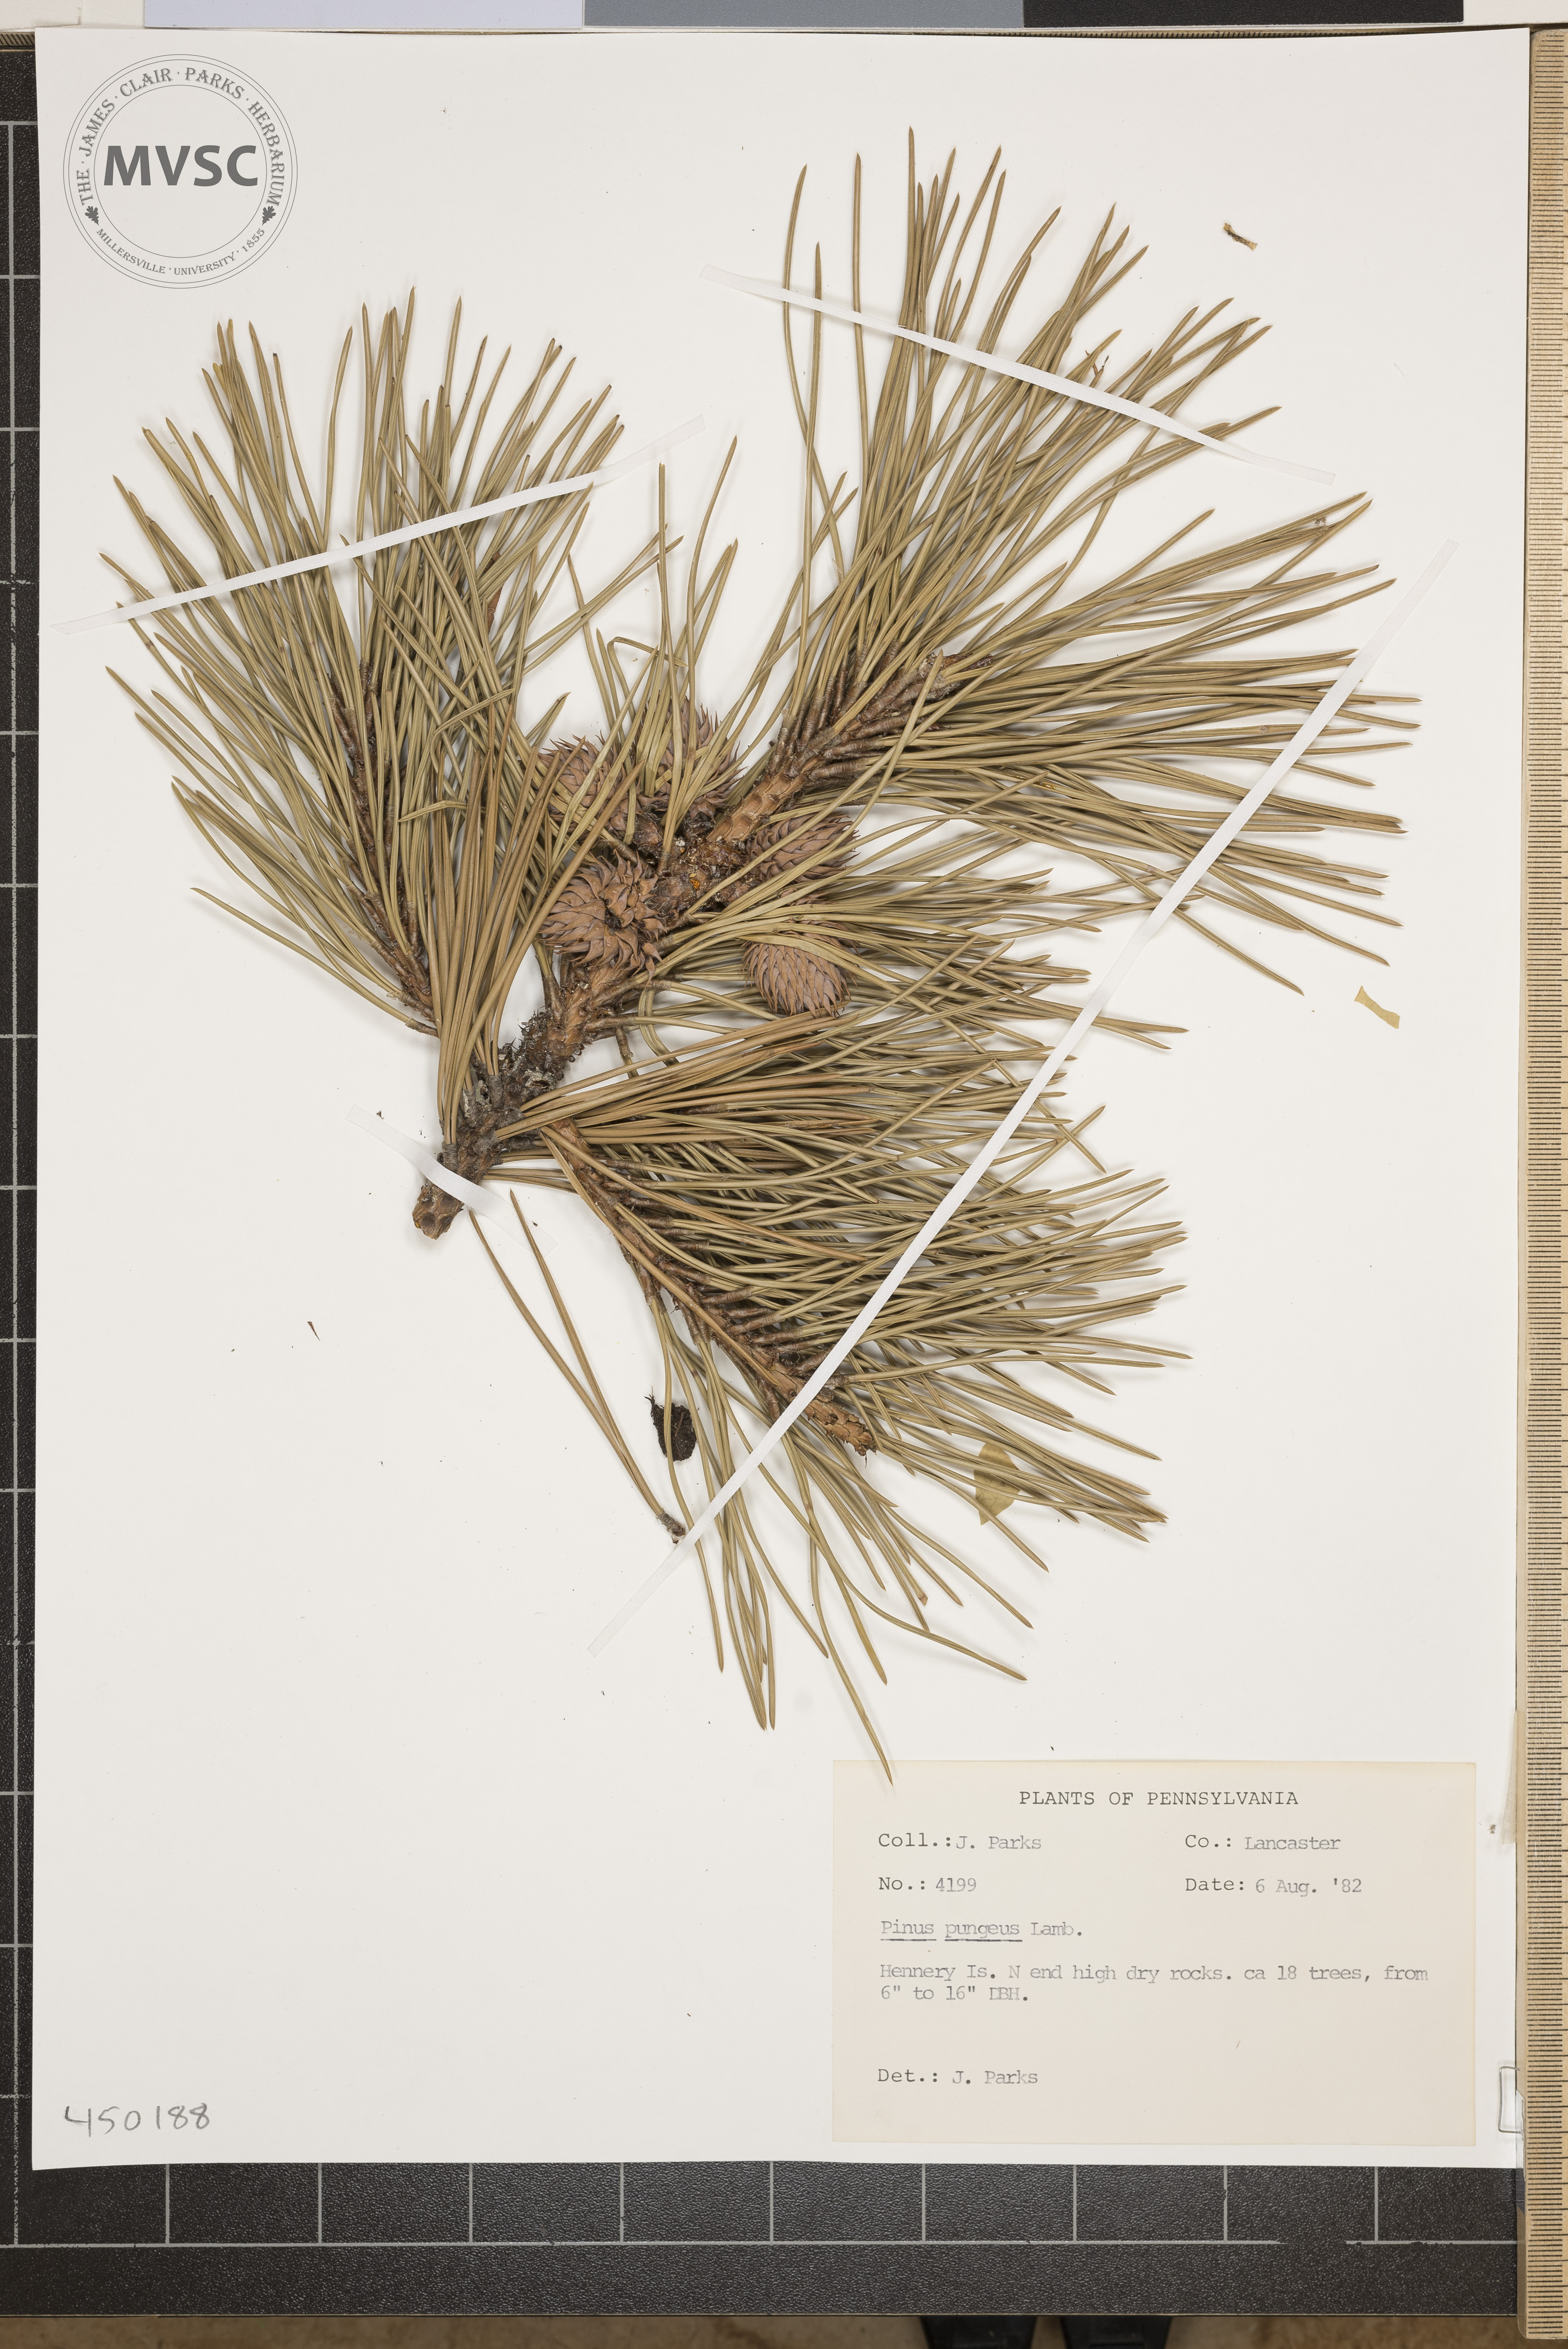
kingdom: Plantae
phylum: Tracheophyta
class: Pinopsida
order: Pinales
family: Pinaceae
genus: Pinus
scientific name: Pinus pungens
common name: Table Mountain Pine
